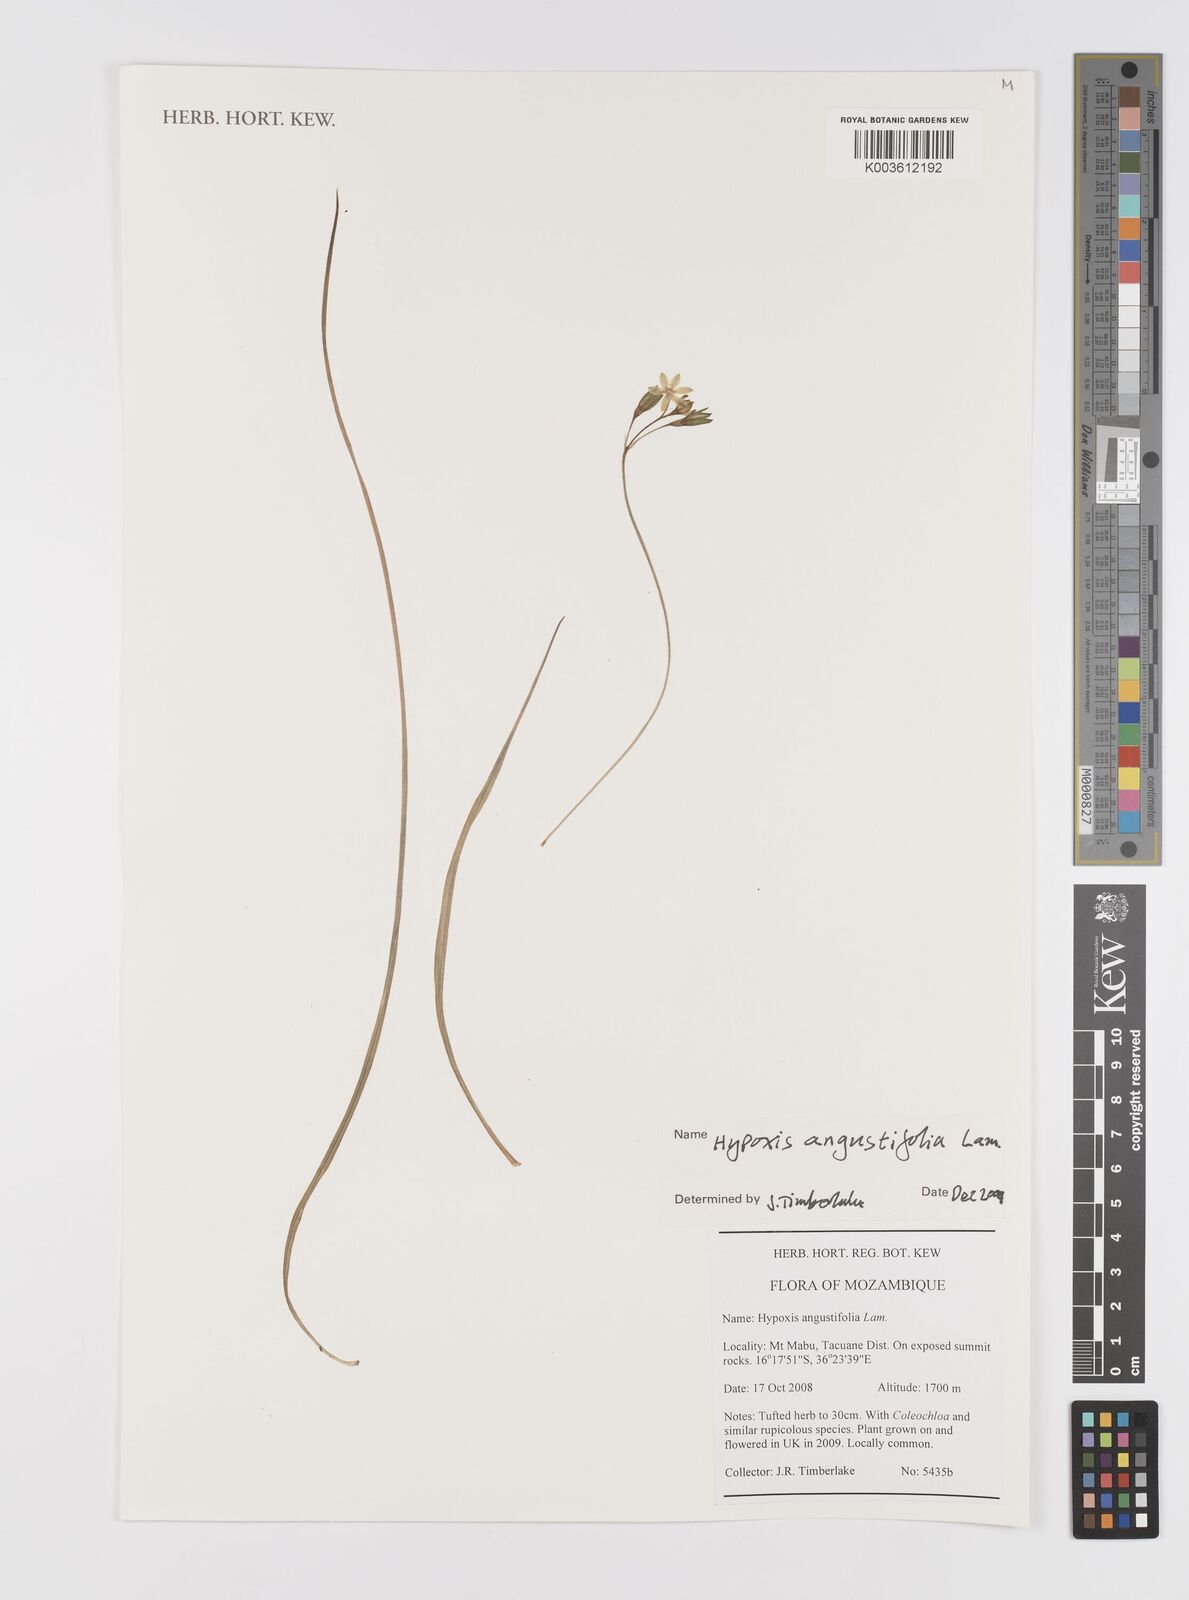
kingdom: Plantae
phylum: Tracheophyta
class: Liliopsida
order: Asparagales
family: Hypoxidaceae
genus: Hypoxis
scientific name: Hypoxis angustifolia
